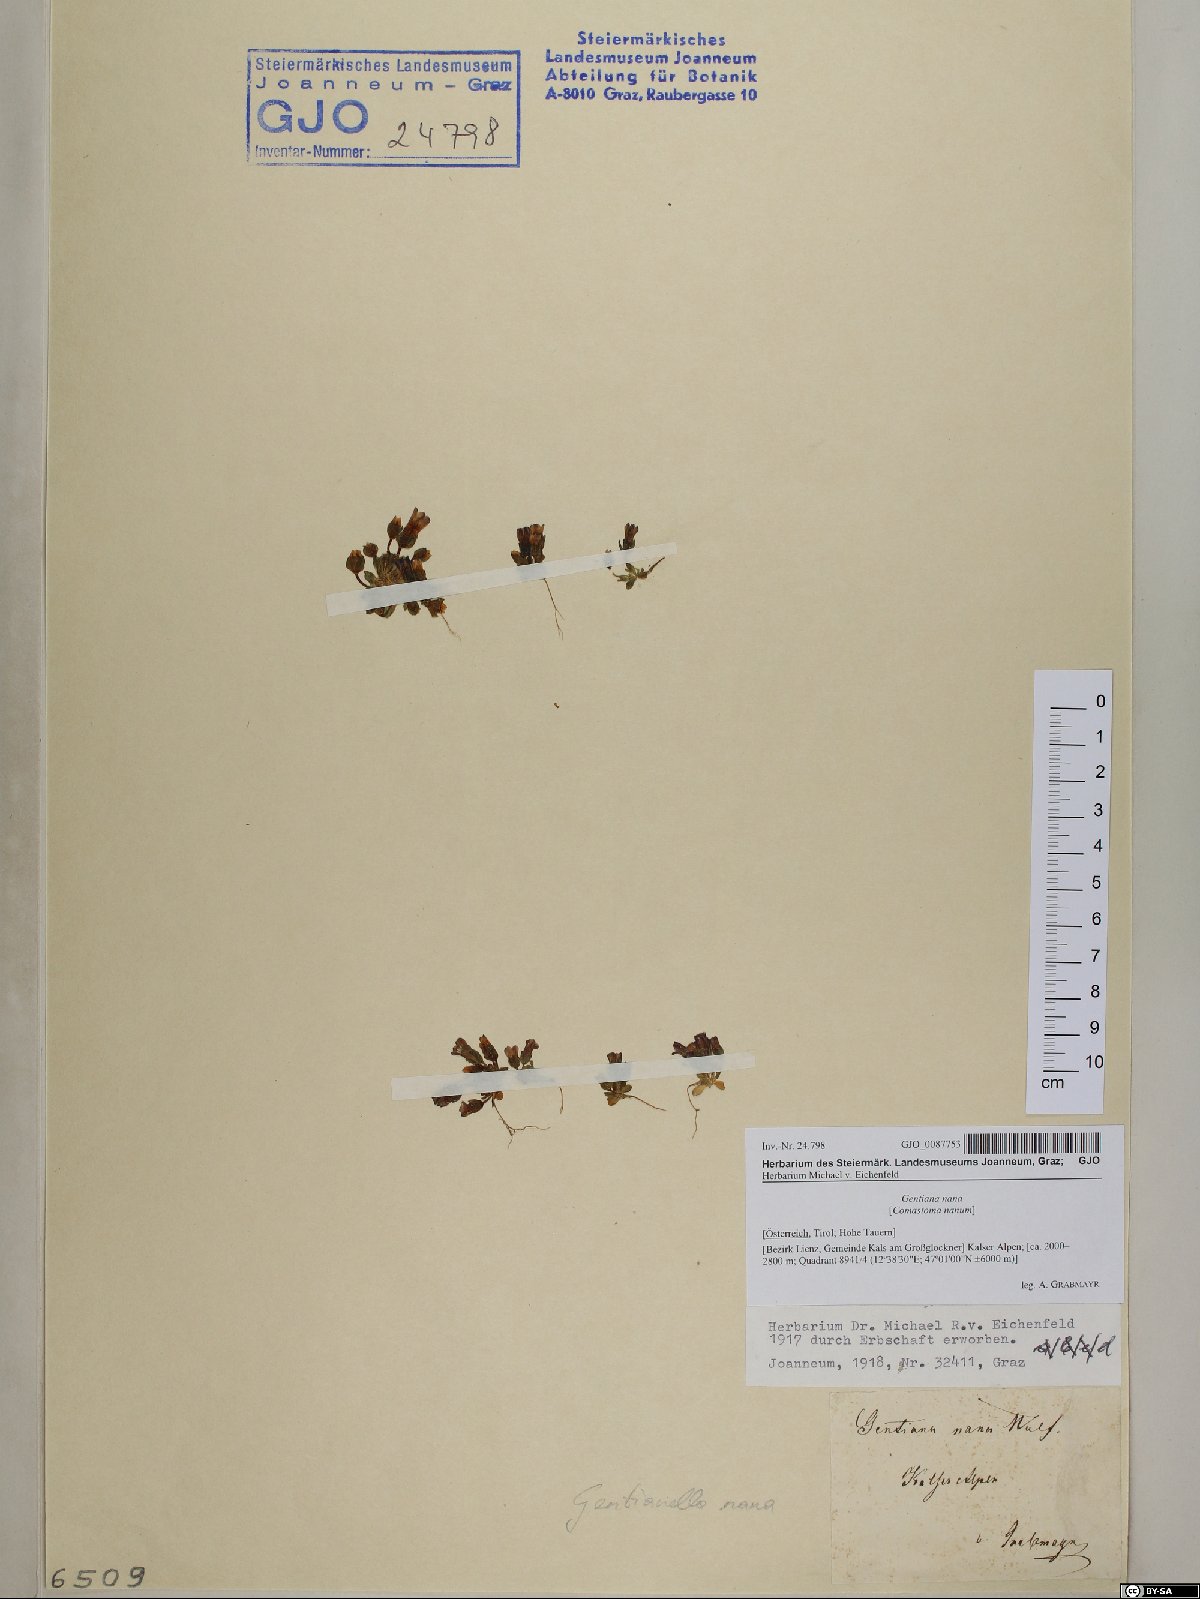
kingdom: Plantae
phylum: Tracheophyta
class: Magnoliopsida
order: Gentianales
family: Gentianaceae
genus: Comastoma
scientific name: Comastoma nanum
